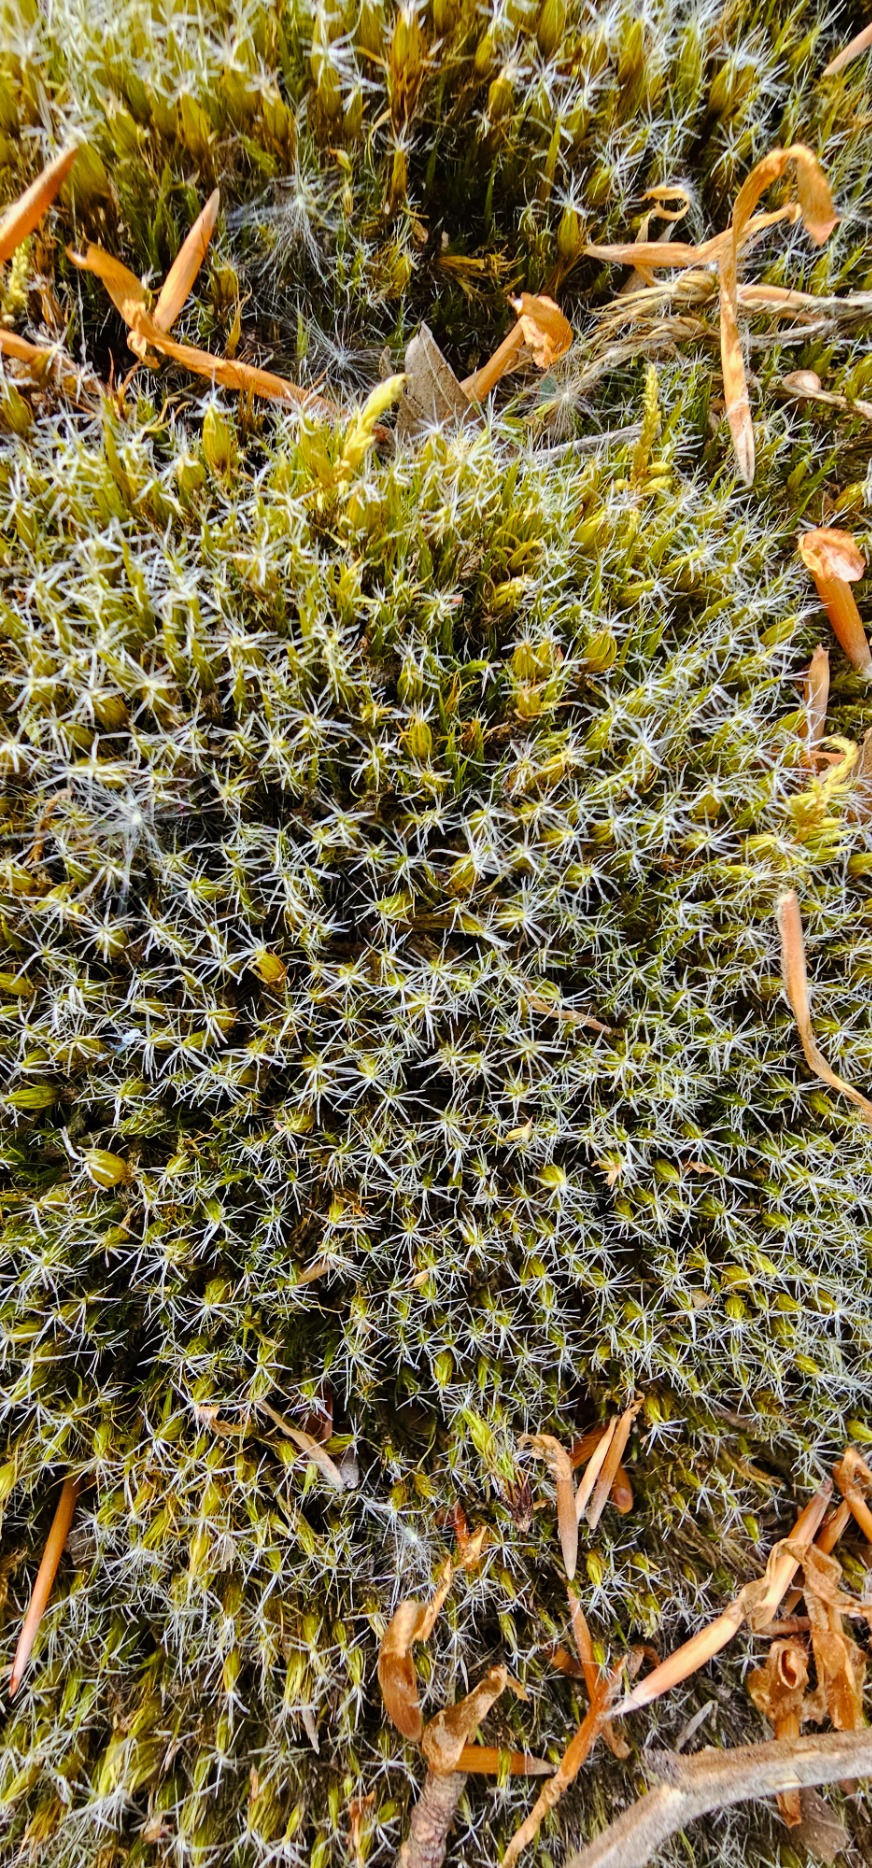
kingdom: Plantae
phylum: Bryophyta
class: Bryopsida
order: Dicranales
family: Leucobryaceae
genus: Campylopus
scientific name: Campylopus introflexus
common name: Stjerne-bredribbe
